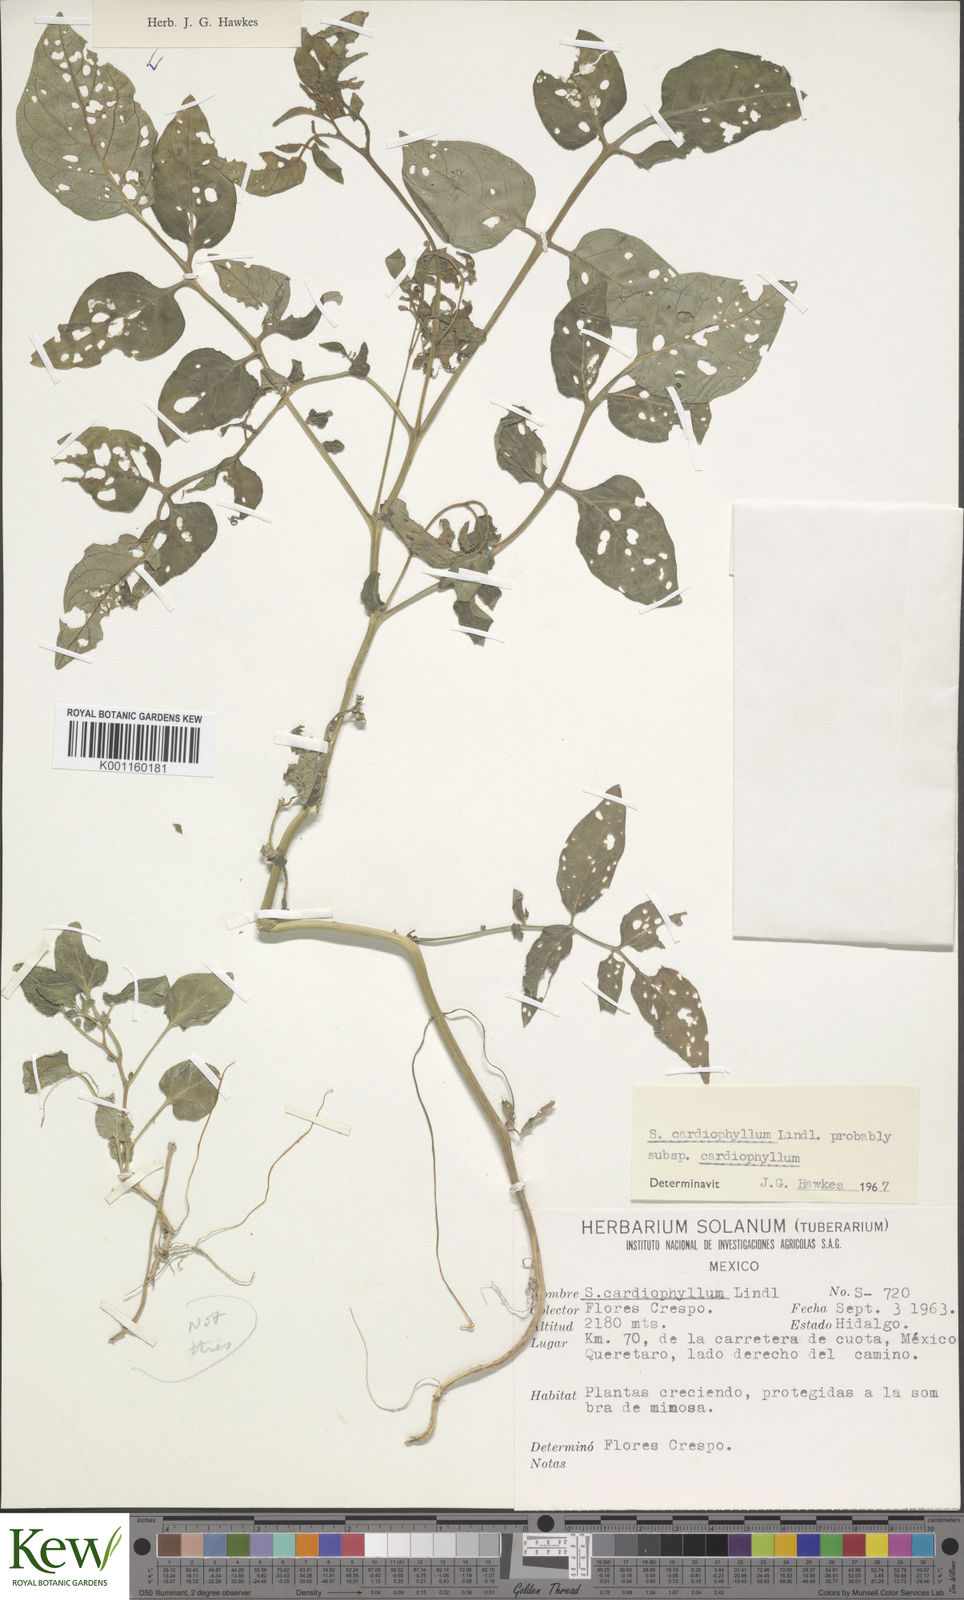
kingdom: Plantae
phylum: Tracheophyta
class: Magnoliopsida
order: Solanales
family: Solanaceae
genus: Solanum
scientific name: Solanum cardiophyllum
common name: Heartleaf horsenettle
